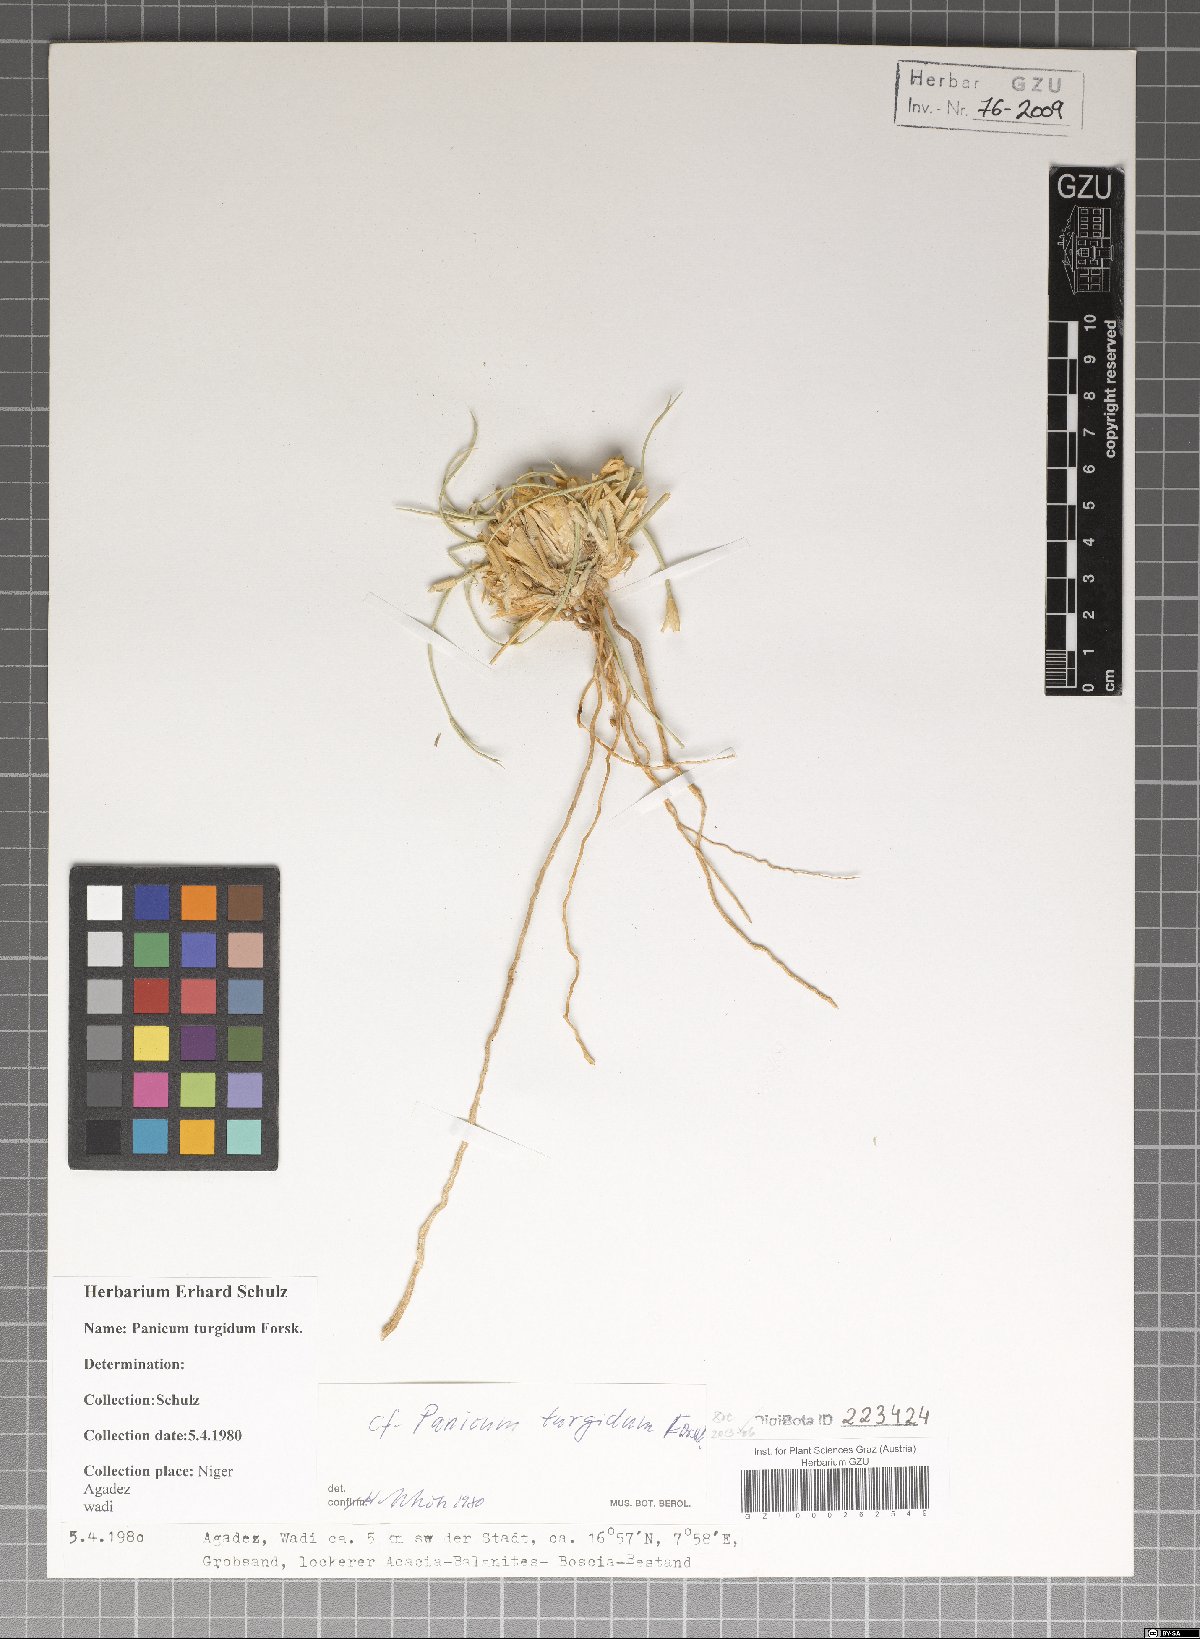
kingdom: Plantae
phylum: Tracheophyta
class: Liliopsida
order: Poales
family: Poaceae
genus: Panicum
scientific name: Panicum turgidum
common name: Desert grass
